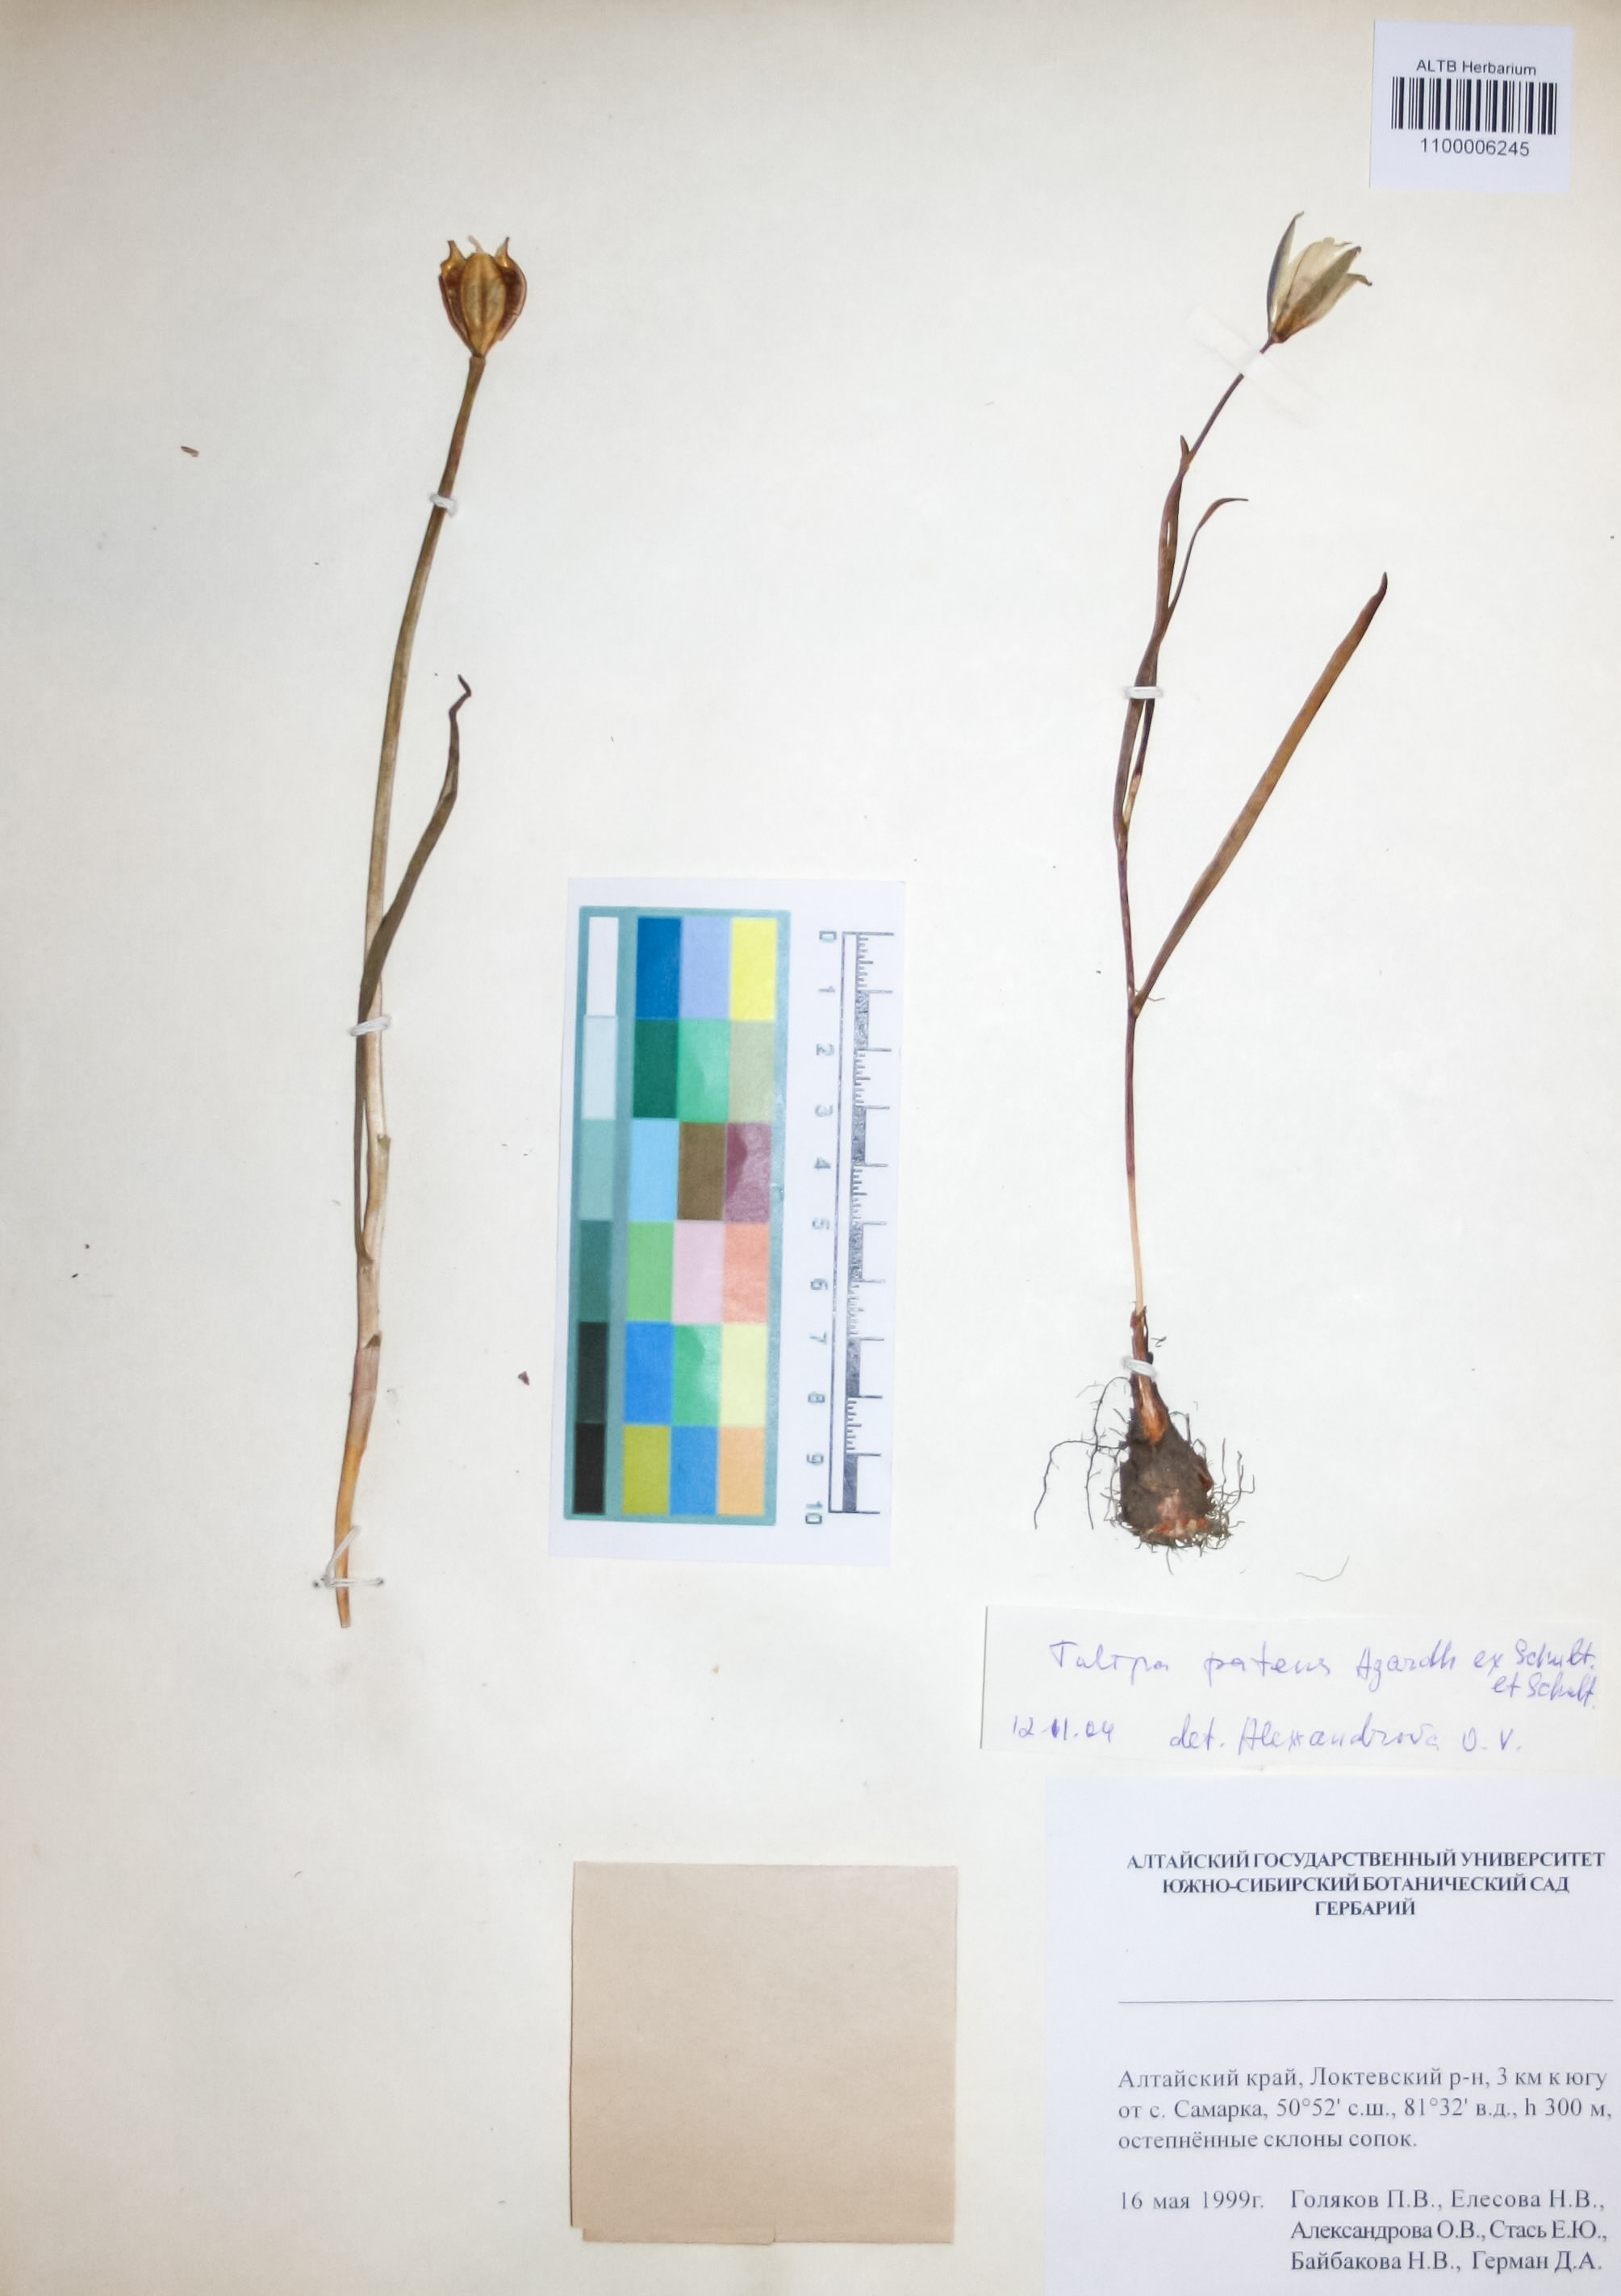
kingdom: Plantae
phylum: Tracheophyta
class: Liliopsida
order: Liliales
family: Liliaceae
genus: Tulipa
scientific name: Tulipa patens
